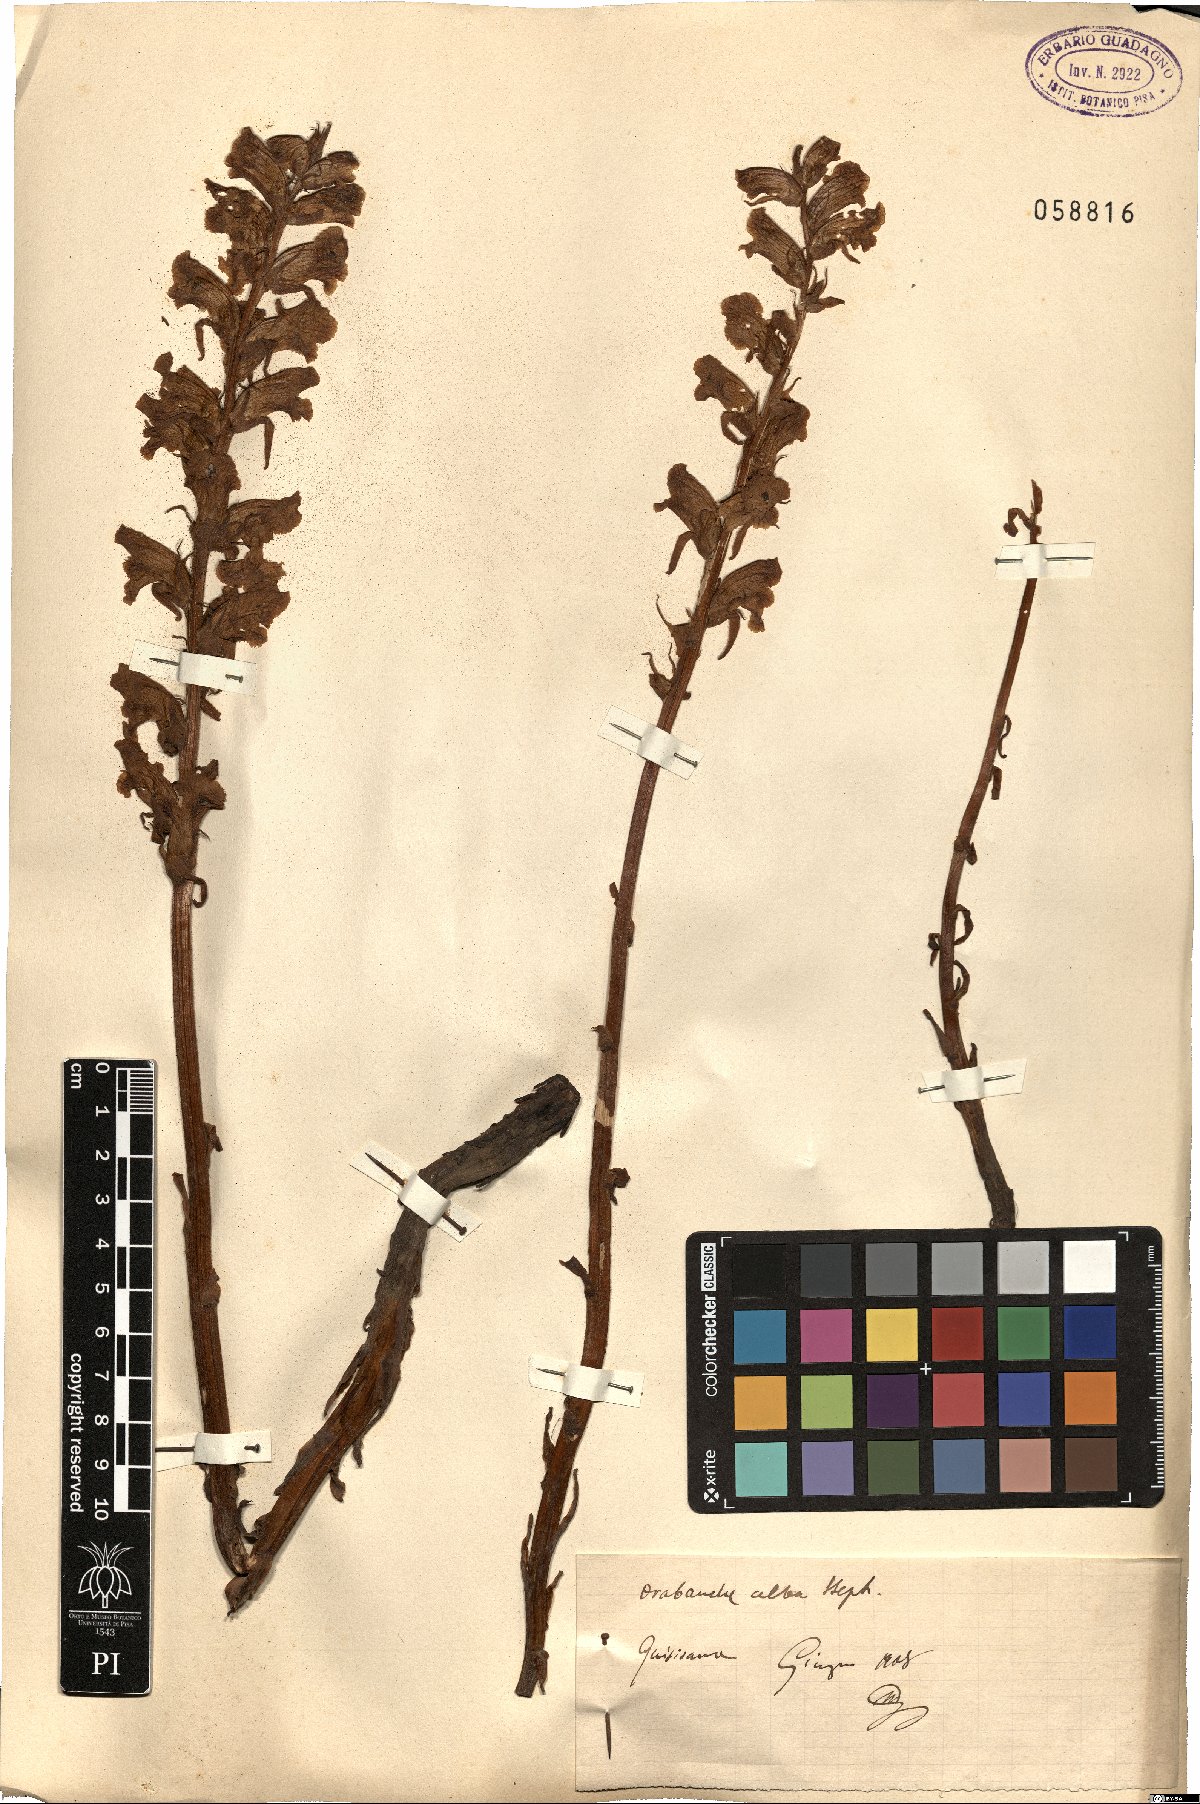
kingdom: Plantae
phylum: Tracheophyta
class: Magnoliopsida
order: Lamiales
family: Orobanchaceae
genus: Orobanche
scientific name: Orobanche alba
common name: Thyme broomrape
